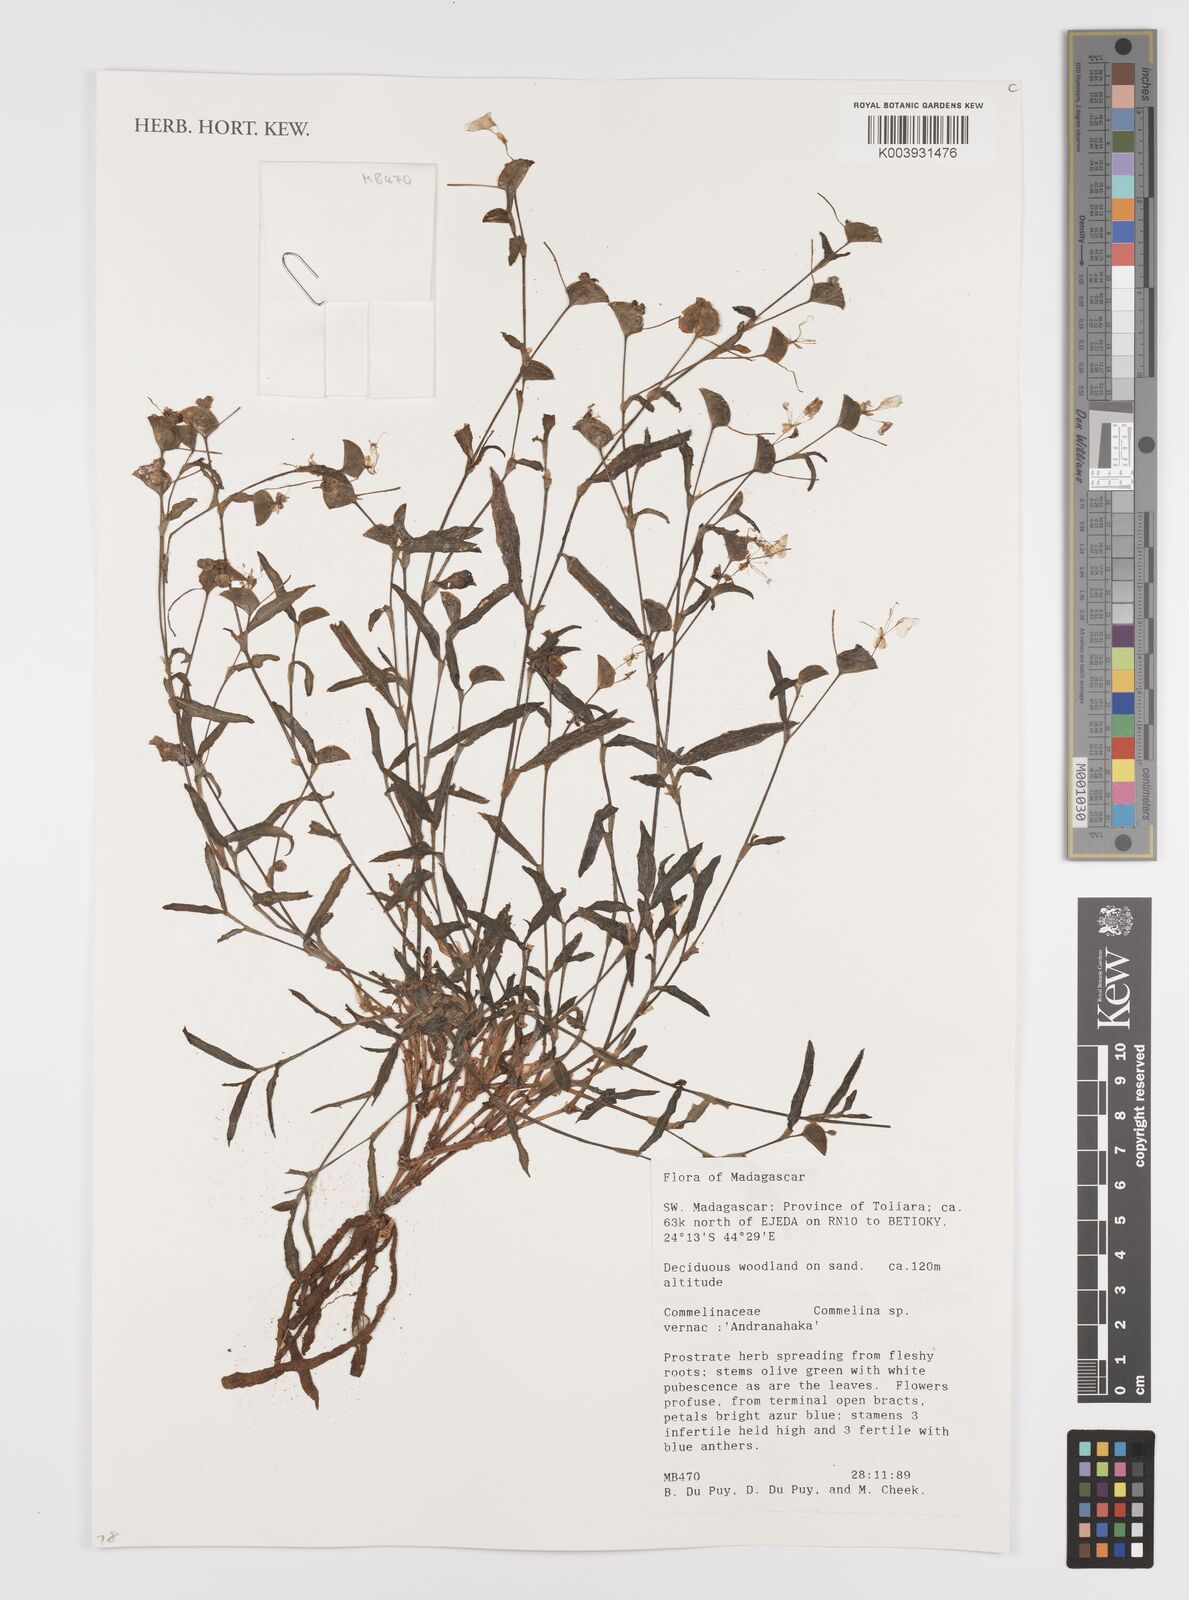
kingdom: Plantae
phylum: Tracheophyta
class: Liliopsida
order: Commelinales
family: Commelinaceae
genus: Commelina
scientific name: Commelina
